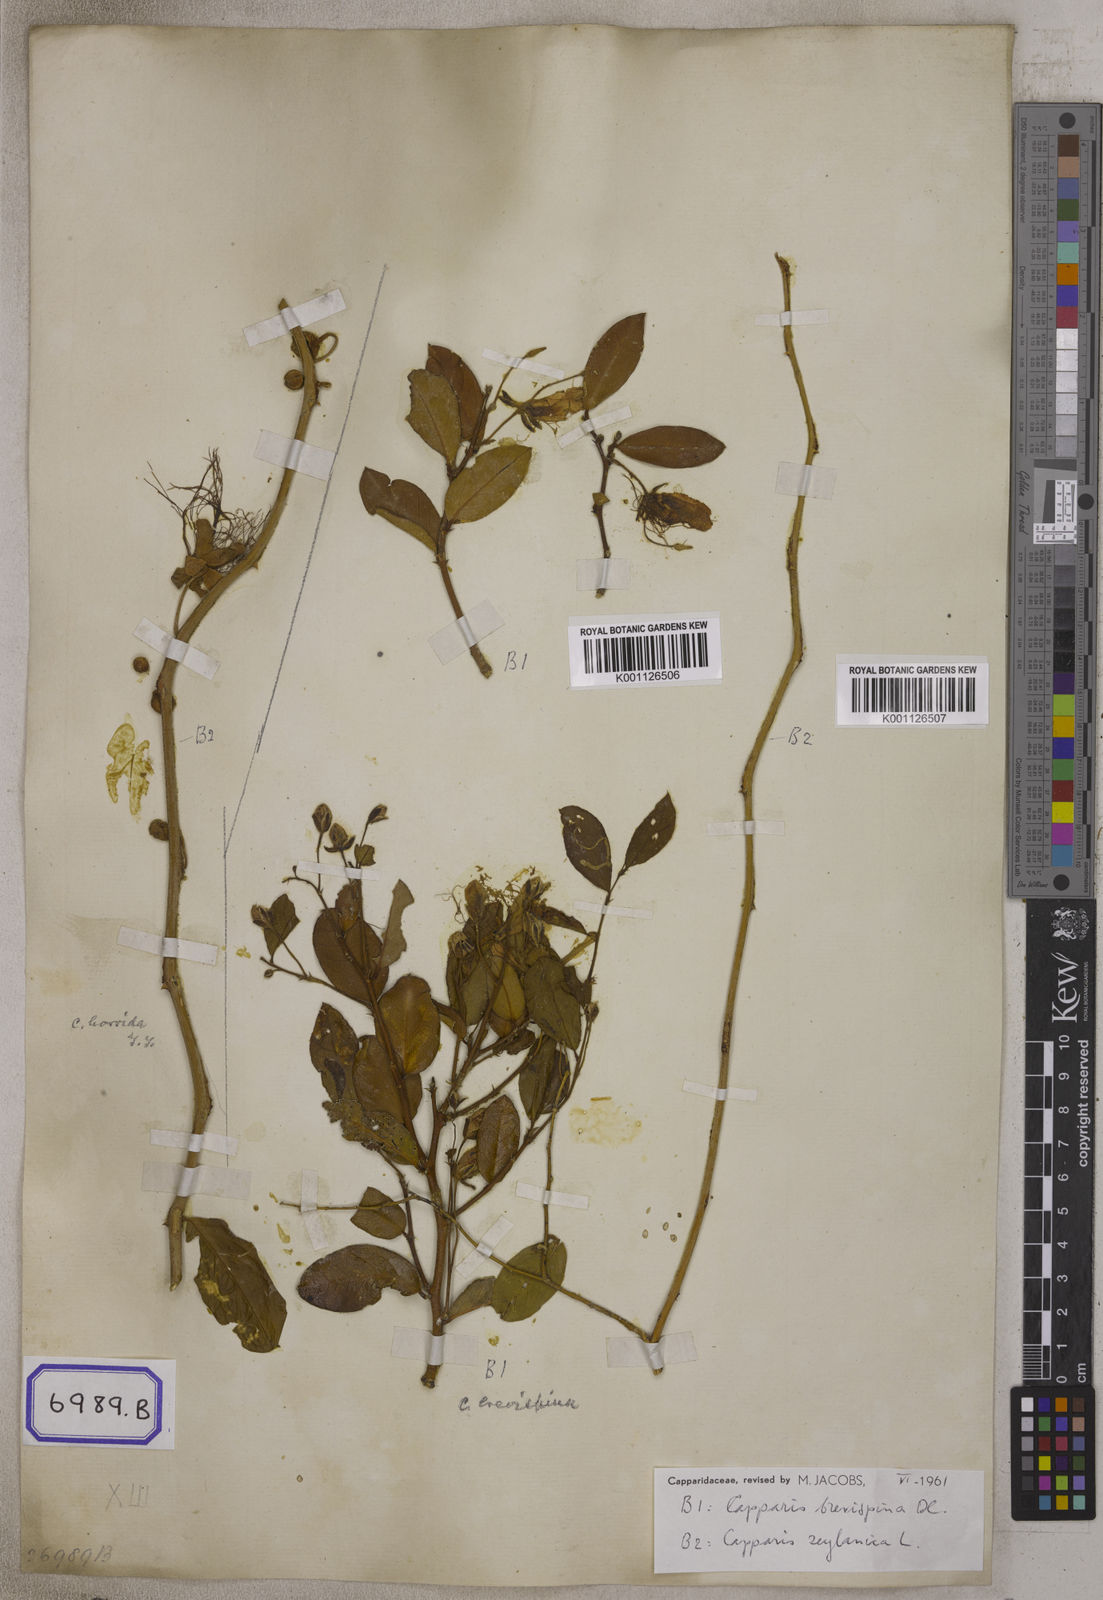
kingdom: Plantae
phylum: Tracheophyta
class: Magnoliopsida
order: Brassicales
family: Capparaceae
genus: Capparis
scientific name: Capparis zeylanica
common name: Ceylon caper
